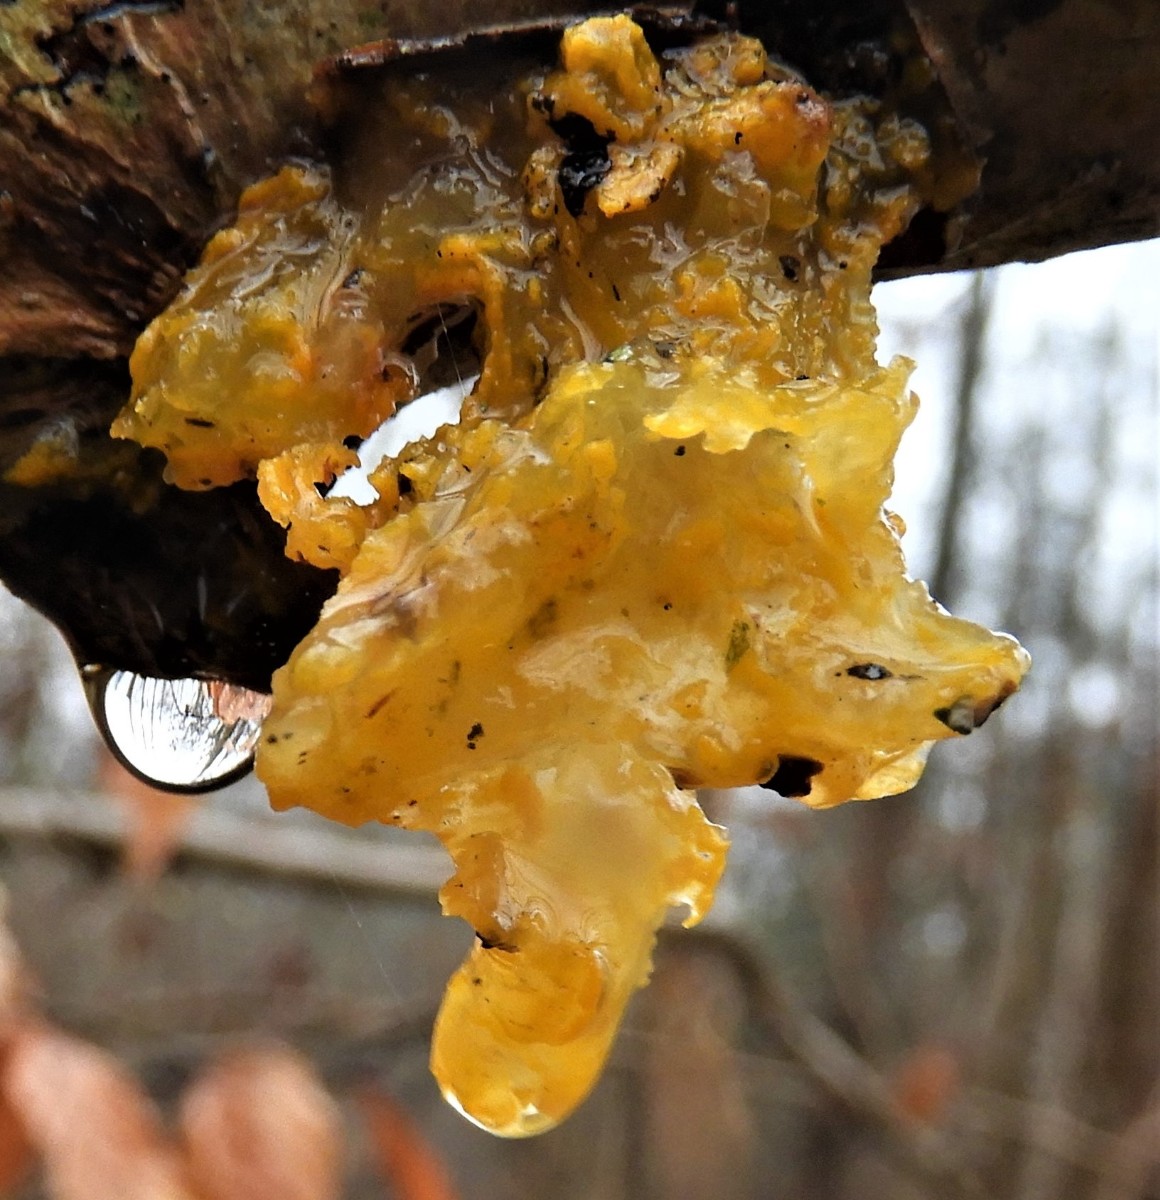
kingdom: Fungi
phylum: Basidiomycota
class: Tremellomycetes
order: Tremellales
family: Tremellaceae
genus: Tremella
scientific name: Tremella mesenterica
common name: gul bævresvamp
